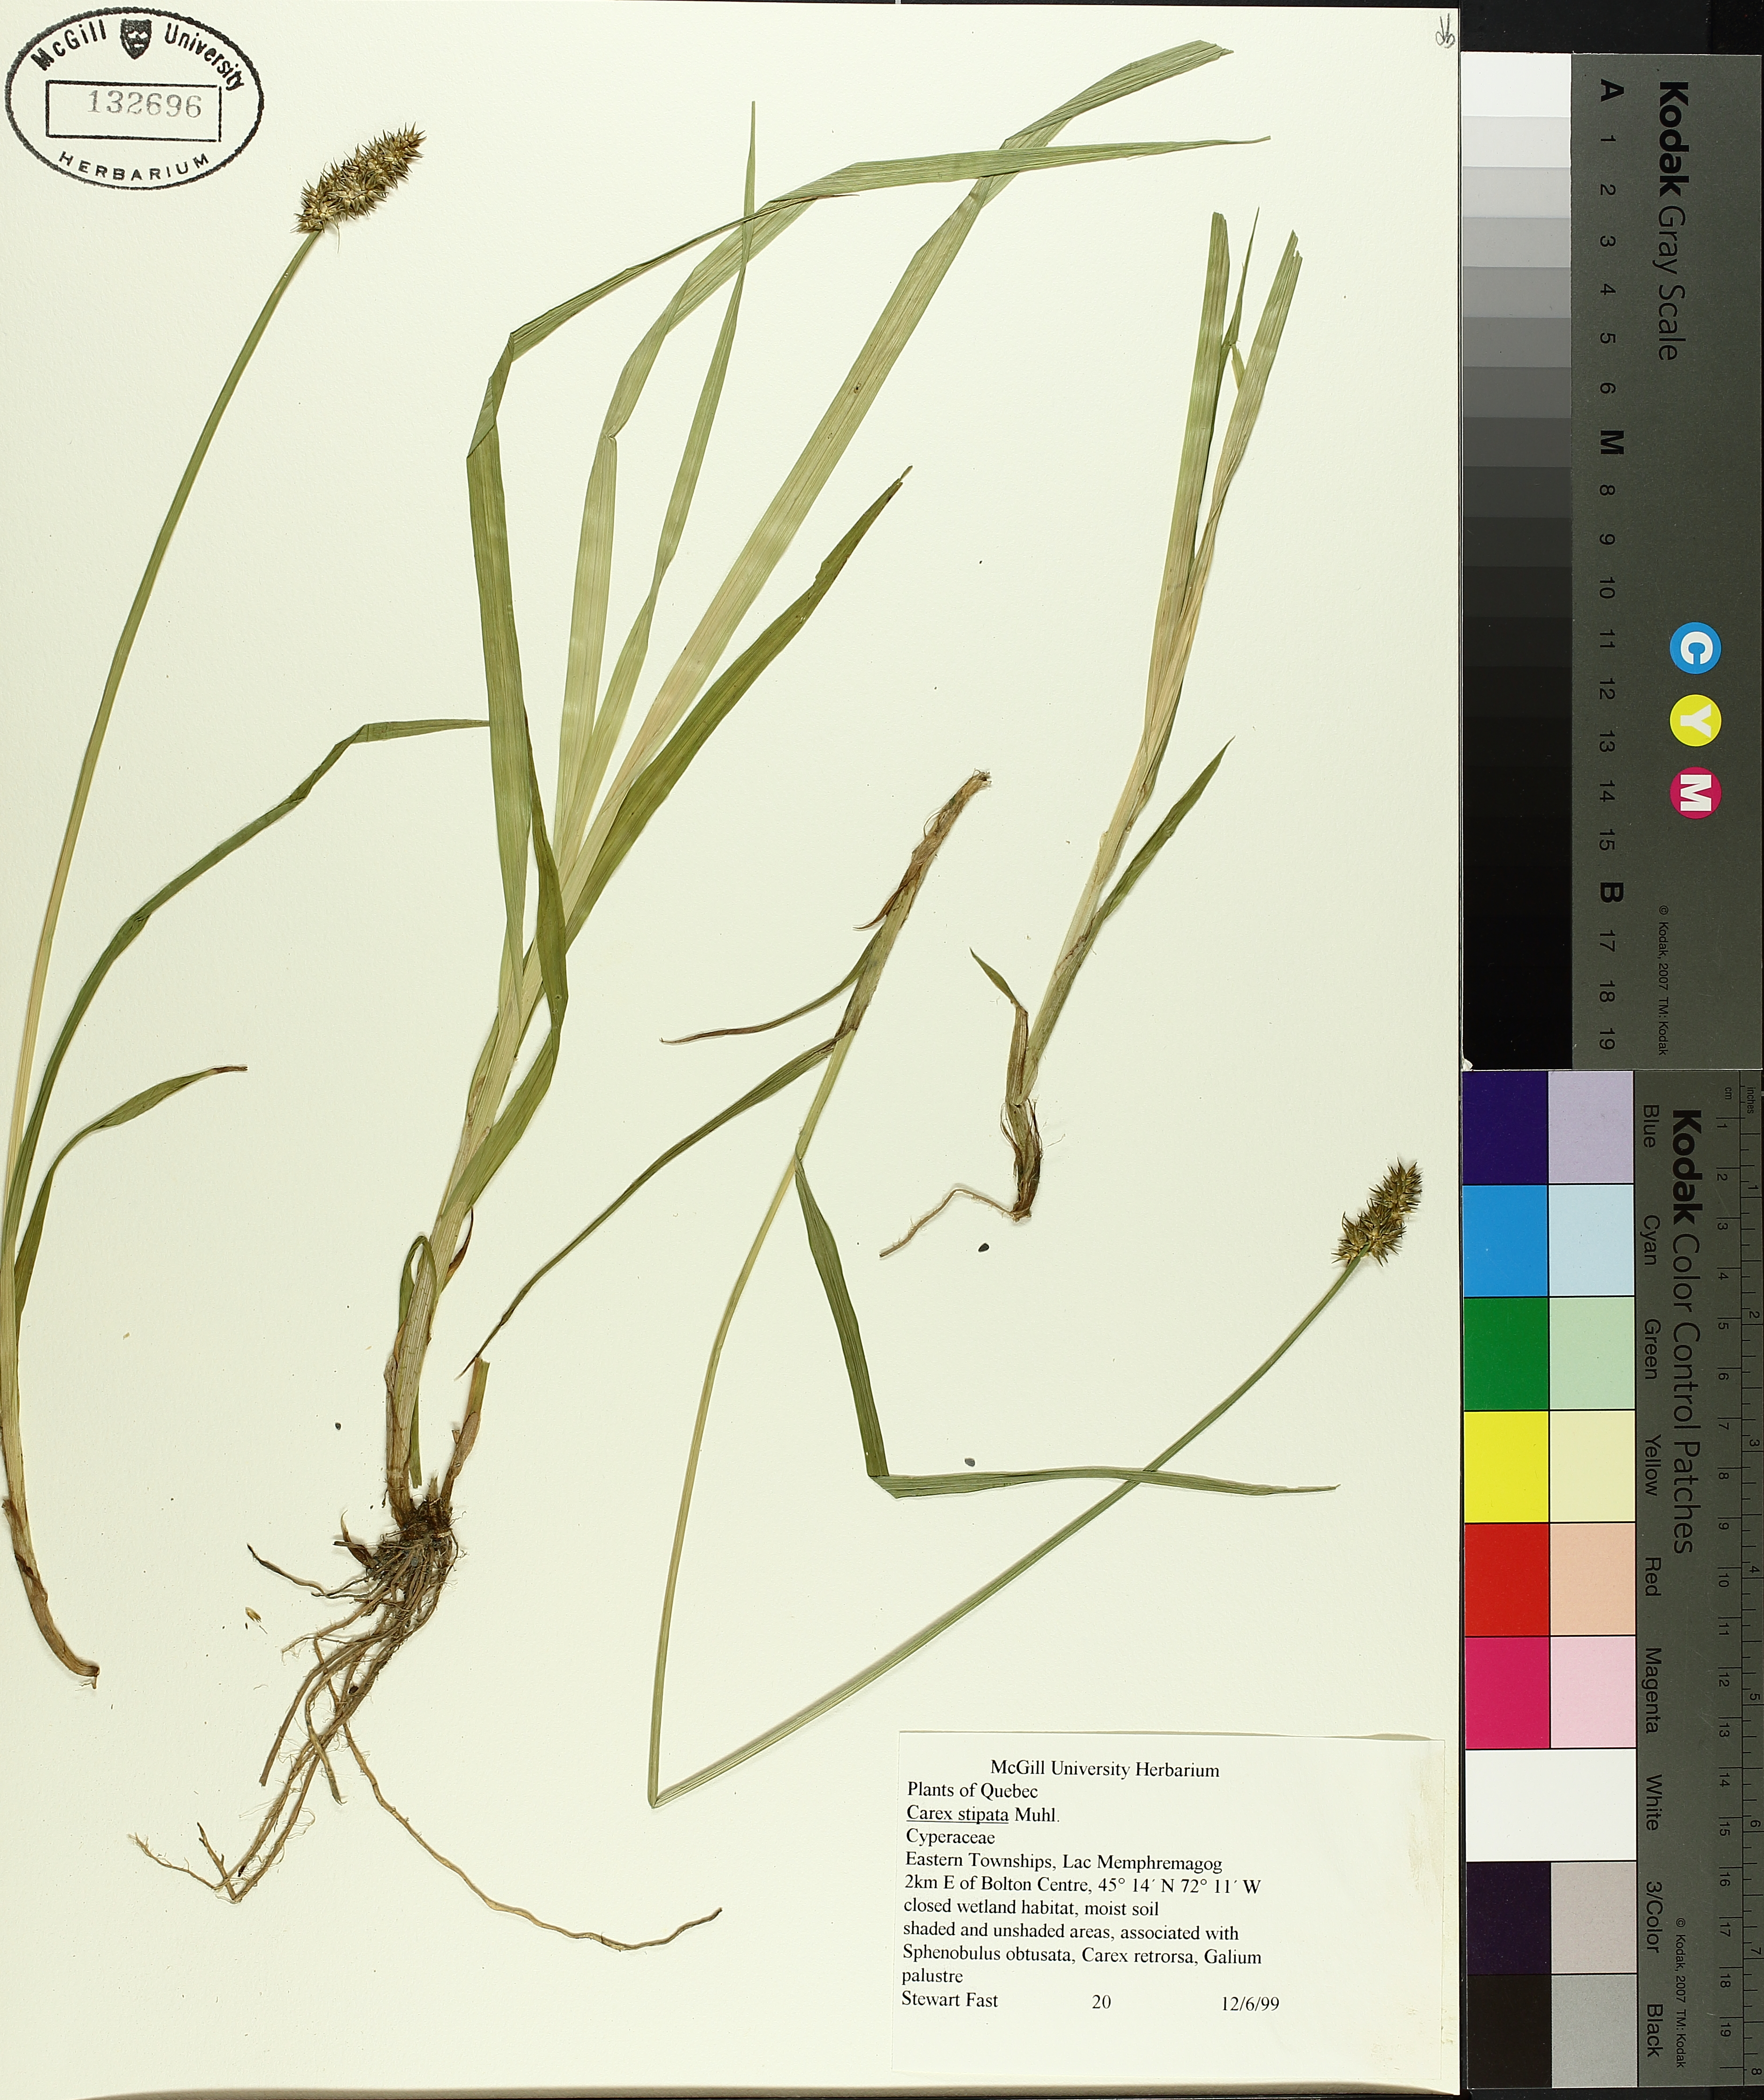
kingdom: Plantae
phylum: Tracheophyta
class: Liliopsida
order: Poales
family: Cyperaceae
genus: Carex
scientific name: Carex stipata
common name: Awl-fruited sedge
